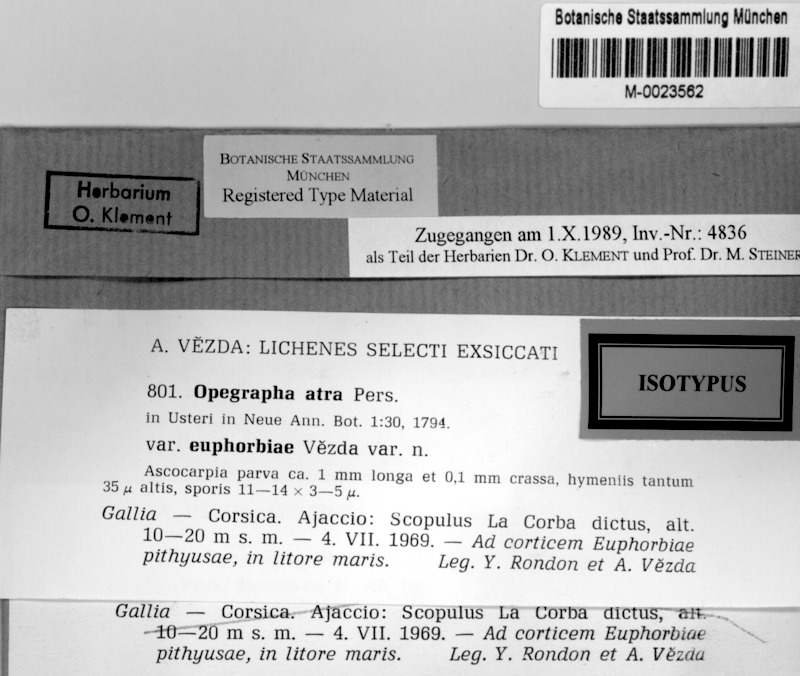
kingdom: Fungi
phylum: Ascomycota
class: Arthoniomycetes
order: Arthoniales
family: Opegraphaceae
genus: Opegrapha
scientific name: Opegrapha atra
